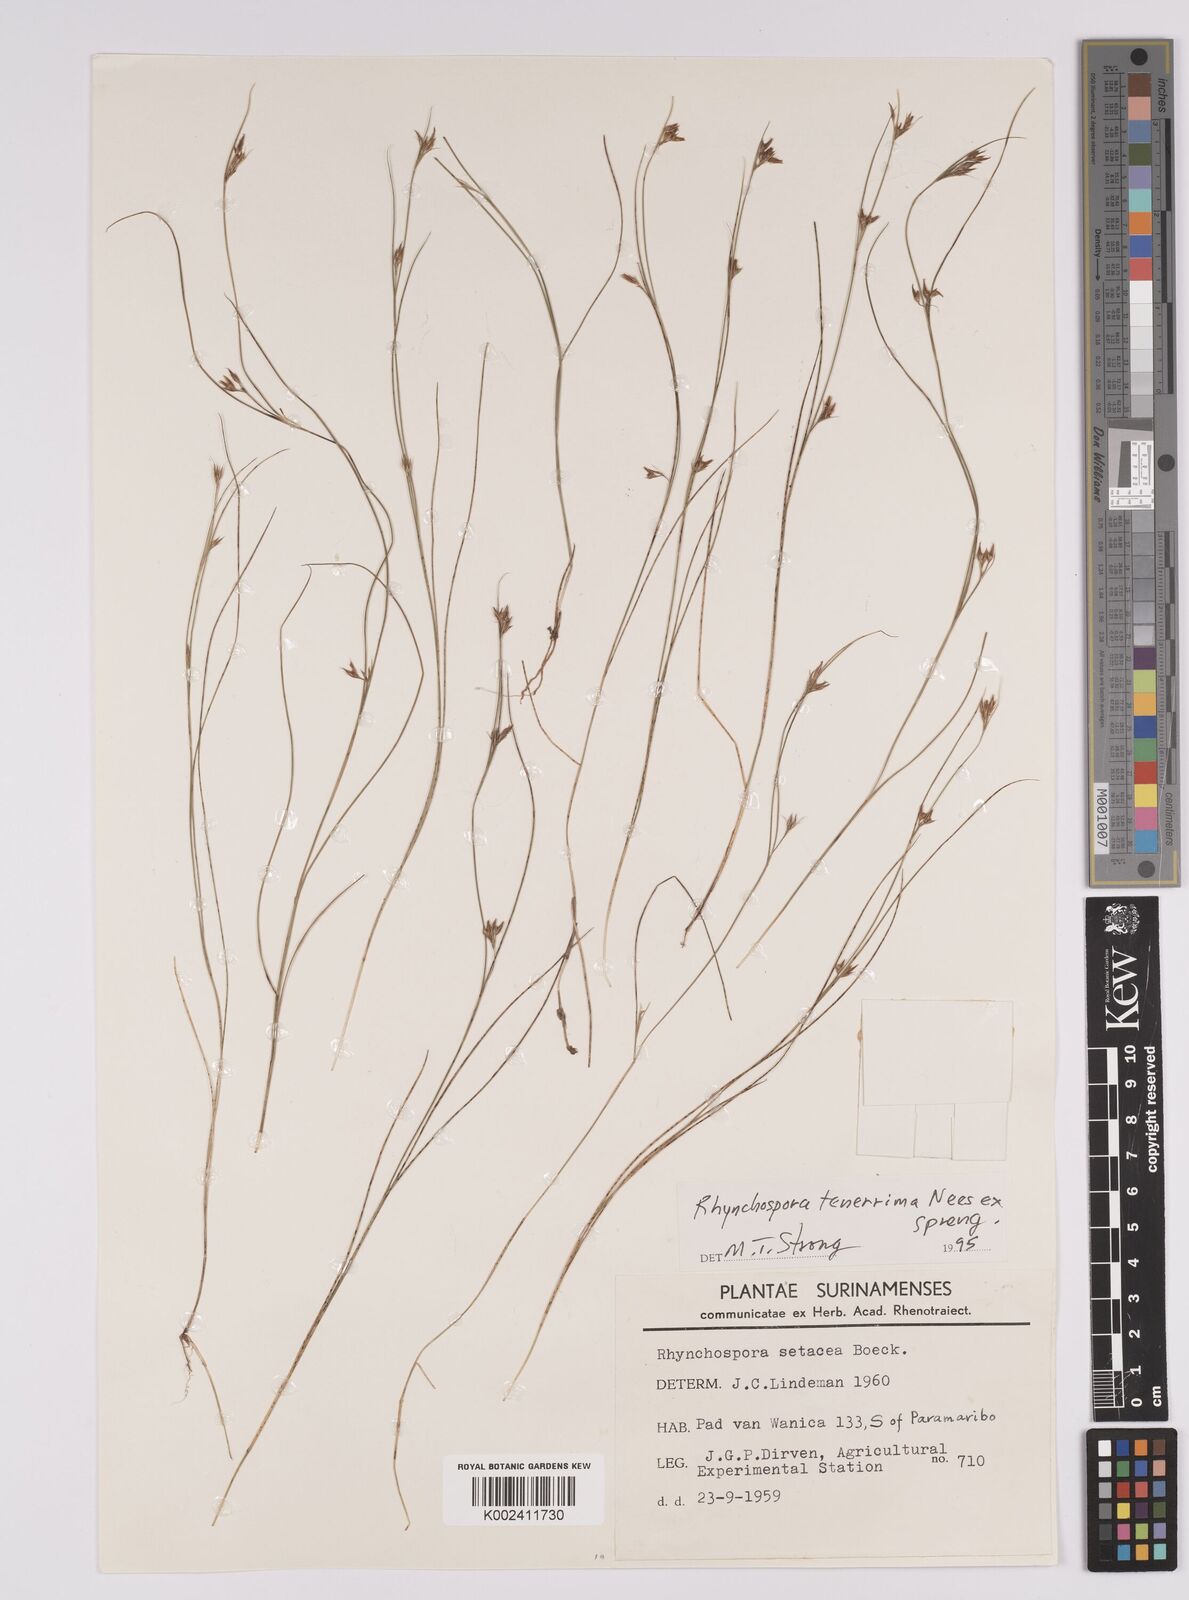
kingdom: Plantae
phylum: Tracheophyta
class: Liliopsida
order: Poales
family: Cyperaceae
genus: Rhynchospora
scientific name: Rhynchospora tenerrima
